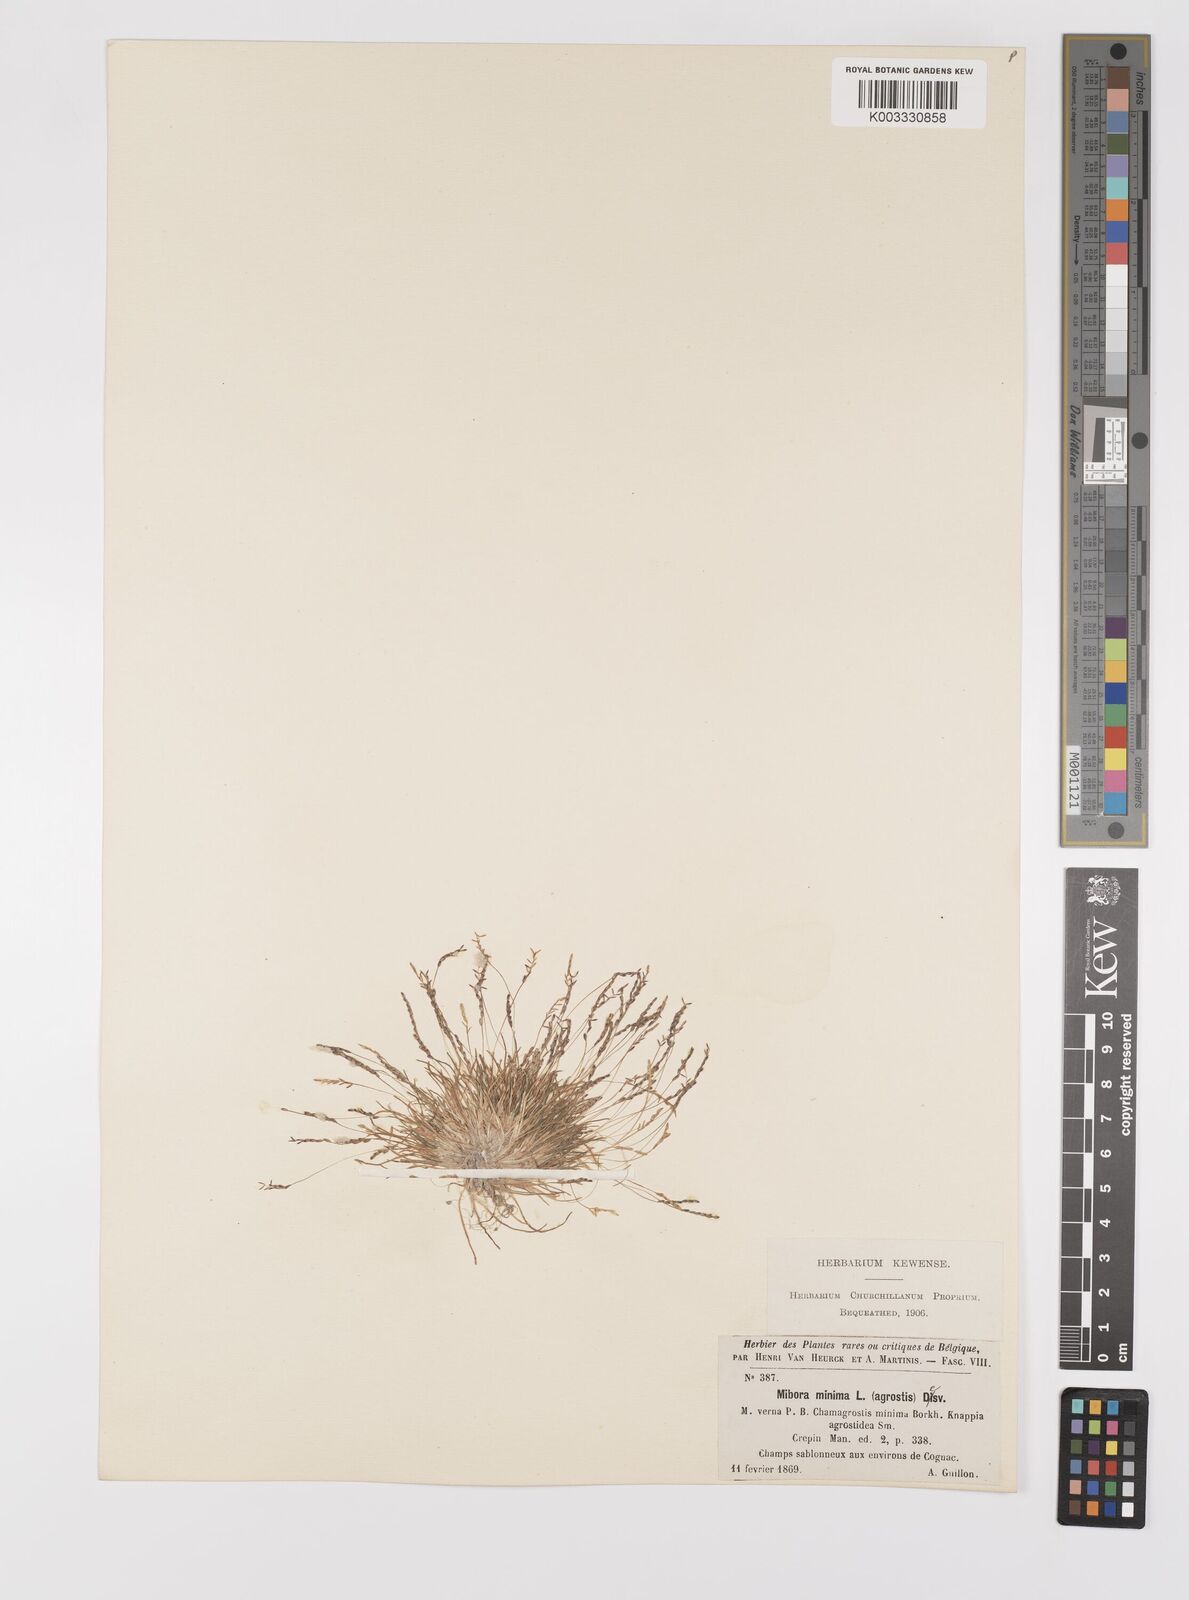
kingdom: Plantae
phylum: Tracheophyta
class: Liliopsida
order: Poales
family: Poaceae
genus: Mibora
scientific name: Mibora minima
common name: Early sand-grass
